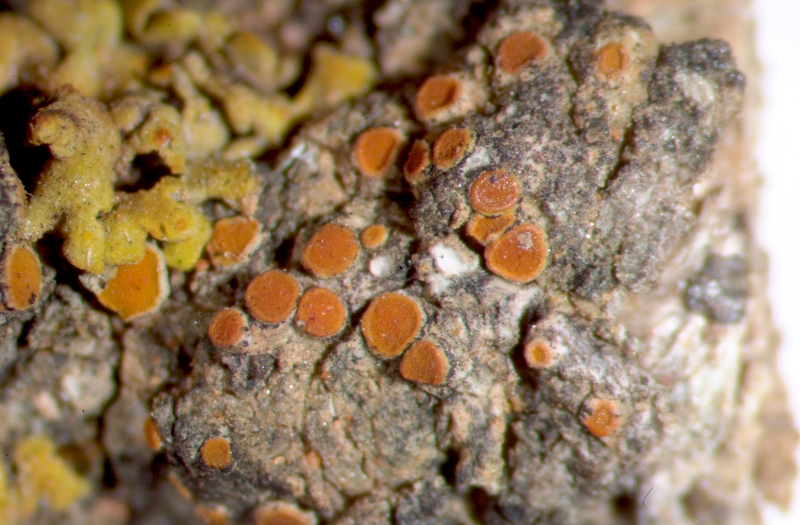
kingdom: Fungi
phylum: Ascomycota
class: Lecanoromycetes
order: Teloschistales
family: Teloschistaceae
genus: Caloplaca
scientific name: Caloplaca
